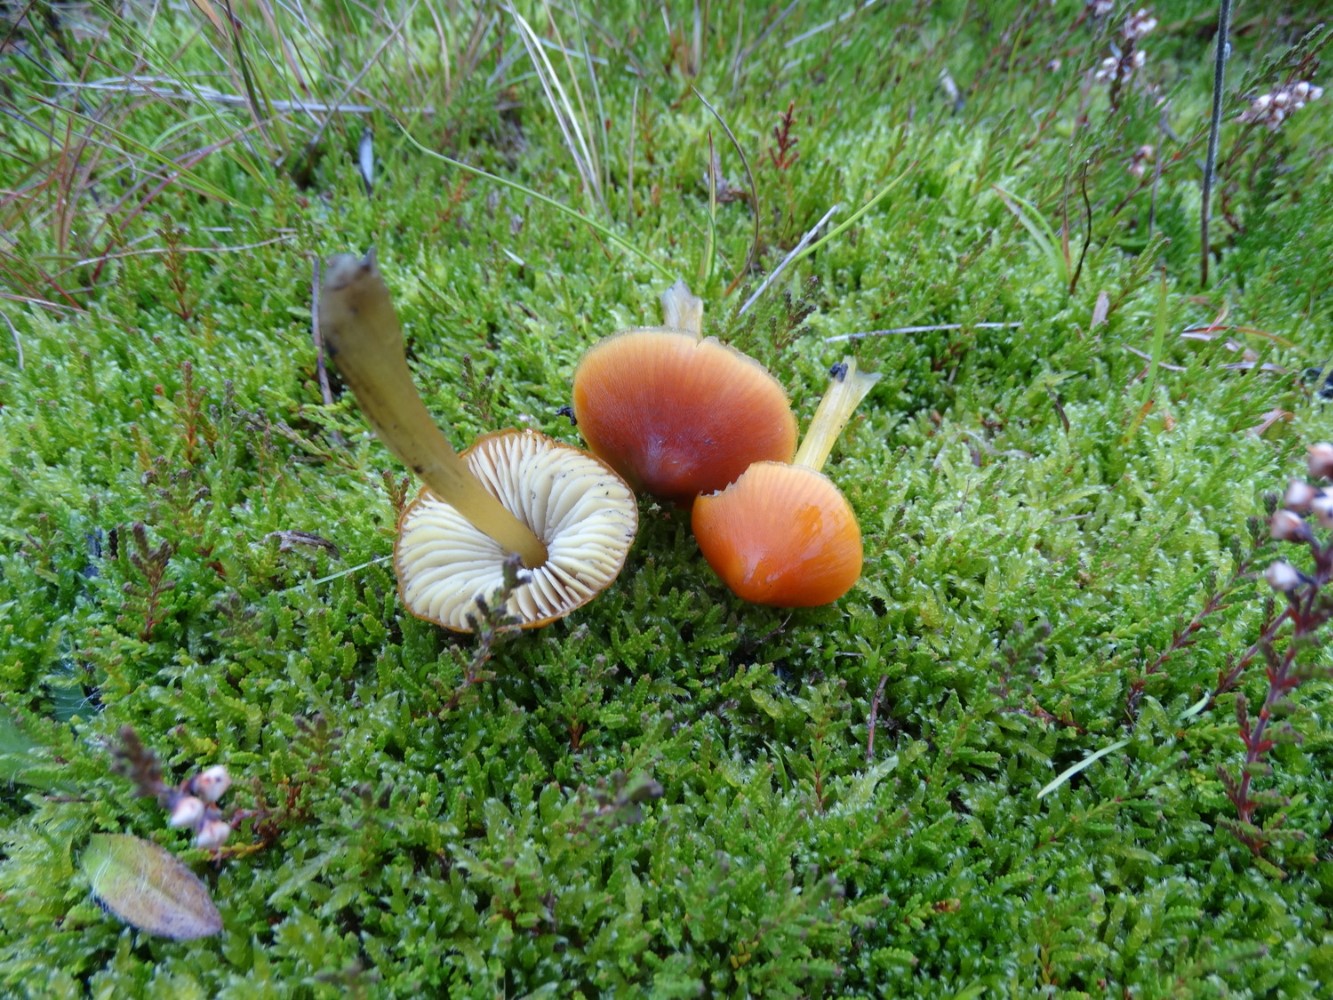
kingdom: Fungi
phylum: Basidiomycota
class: Agaricomycetes
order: Agaricales
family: Hygrophoraceae
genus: Hygrocybe
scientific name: Hygrocybe conica
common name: kegle-vokshat
